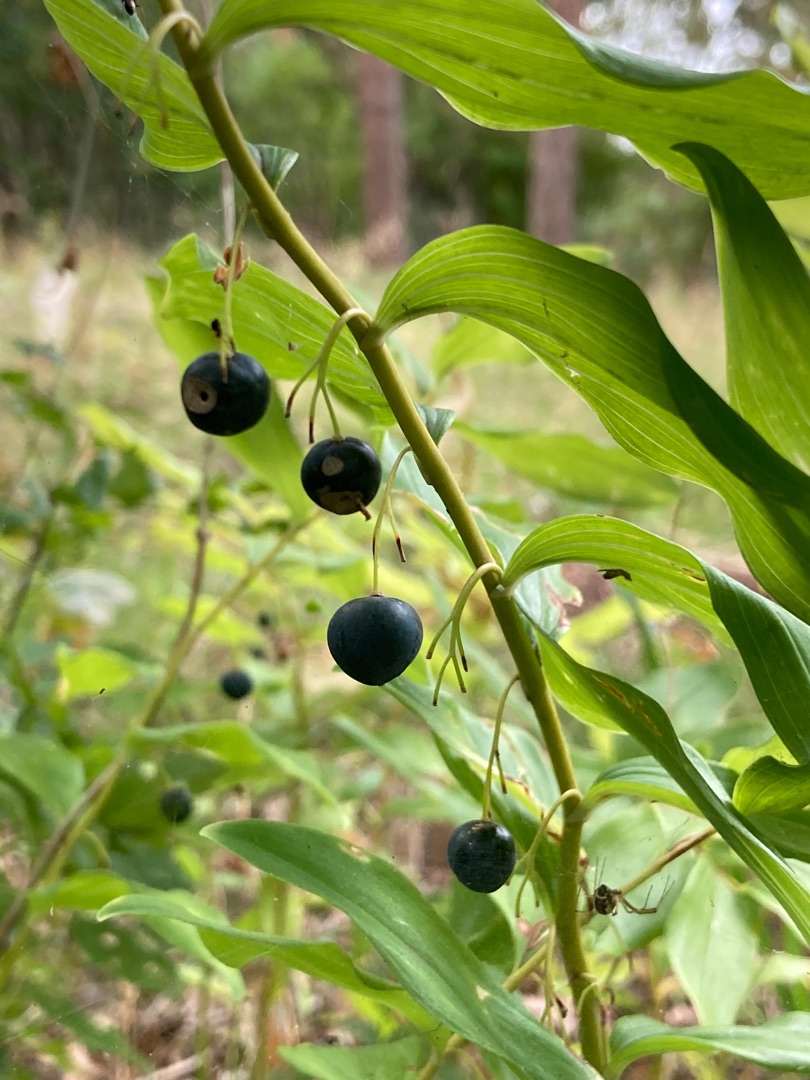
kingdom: Plantae
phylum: Tracheophyta
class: Liliopsida
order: Asparagales
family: Asparagaceae
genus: Polygonatum
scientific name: Polygonatum multiflorum
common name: Stor konval
